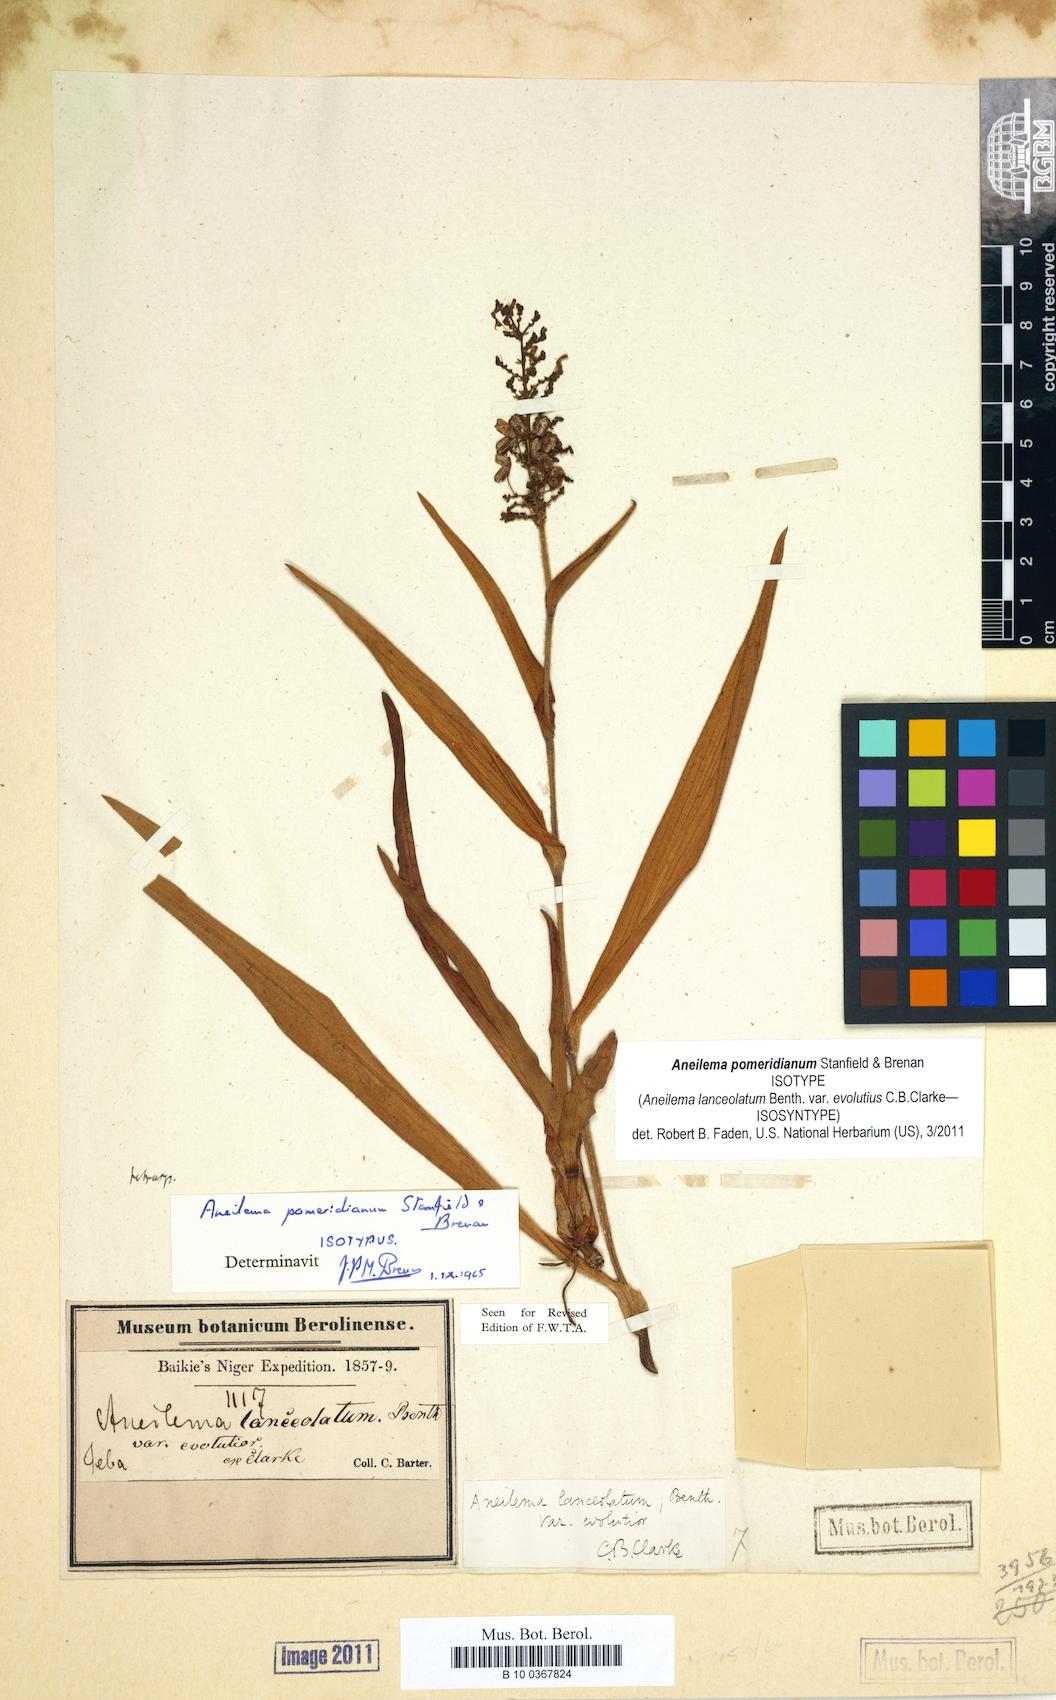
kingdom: Plantae
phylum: Tracheophyta
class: Liliopsida
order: Commelinales
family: Commelinaceae
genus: Aneilema
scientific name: Aneilema pomeridianum
